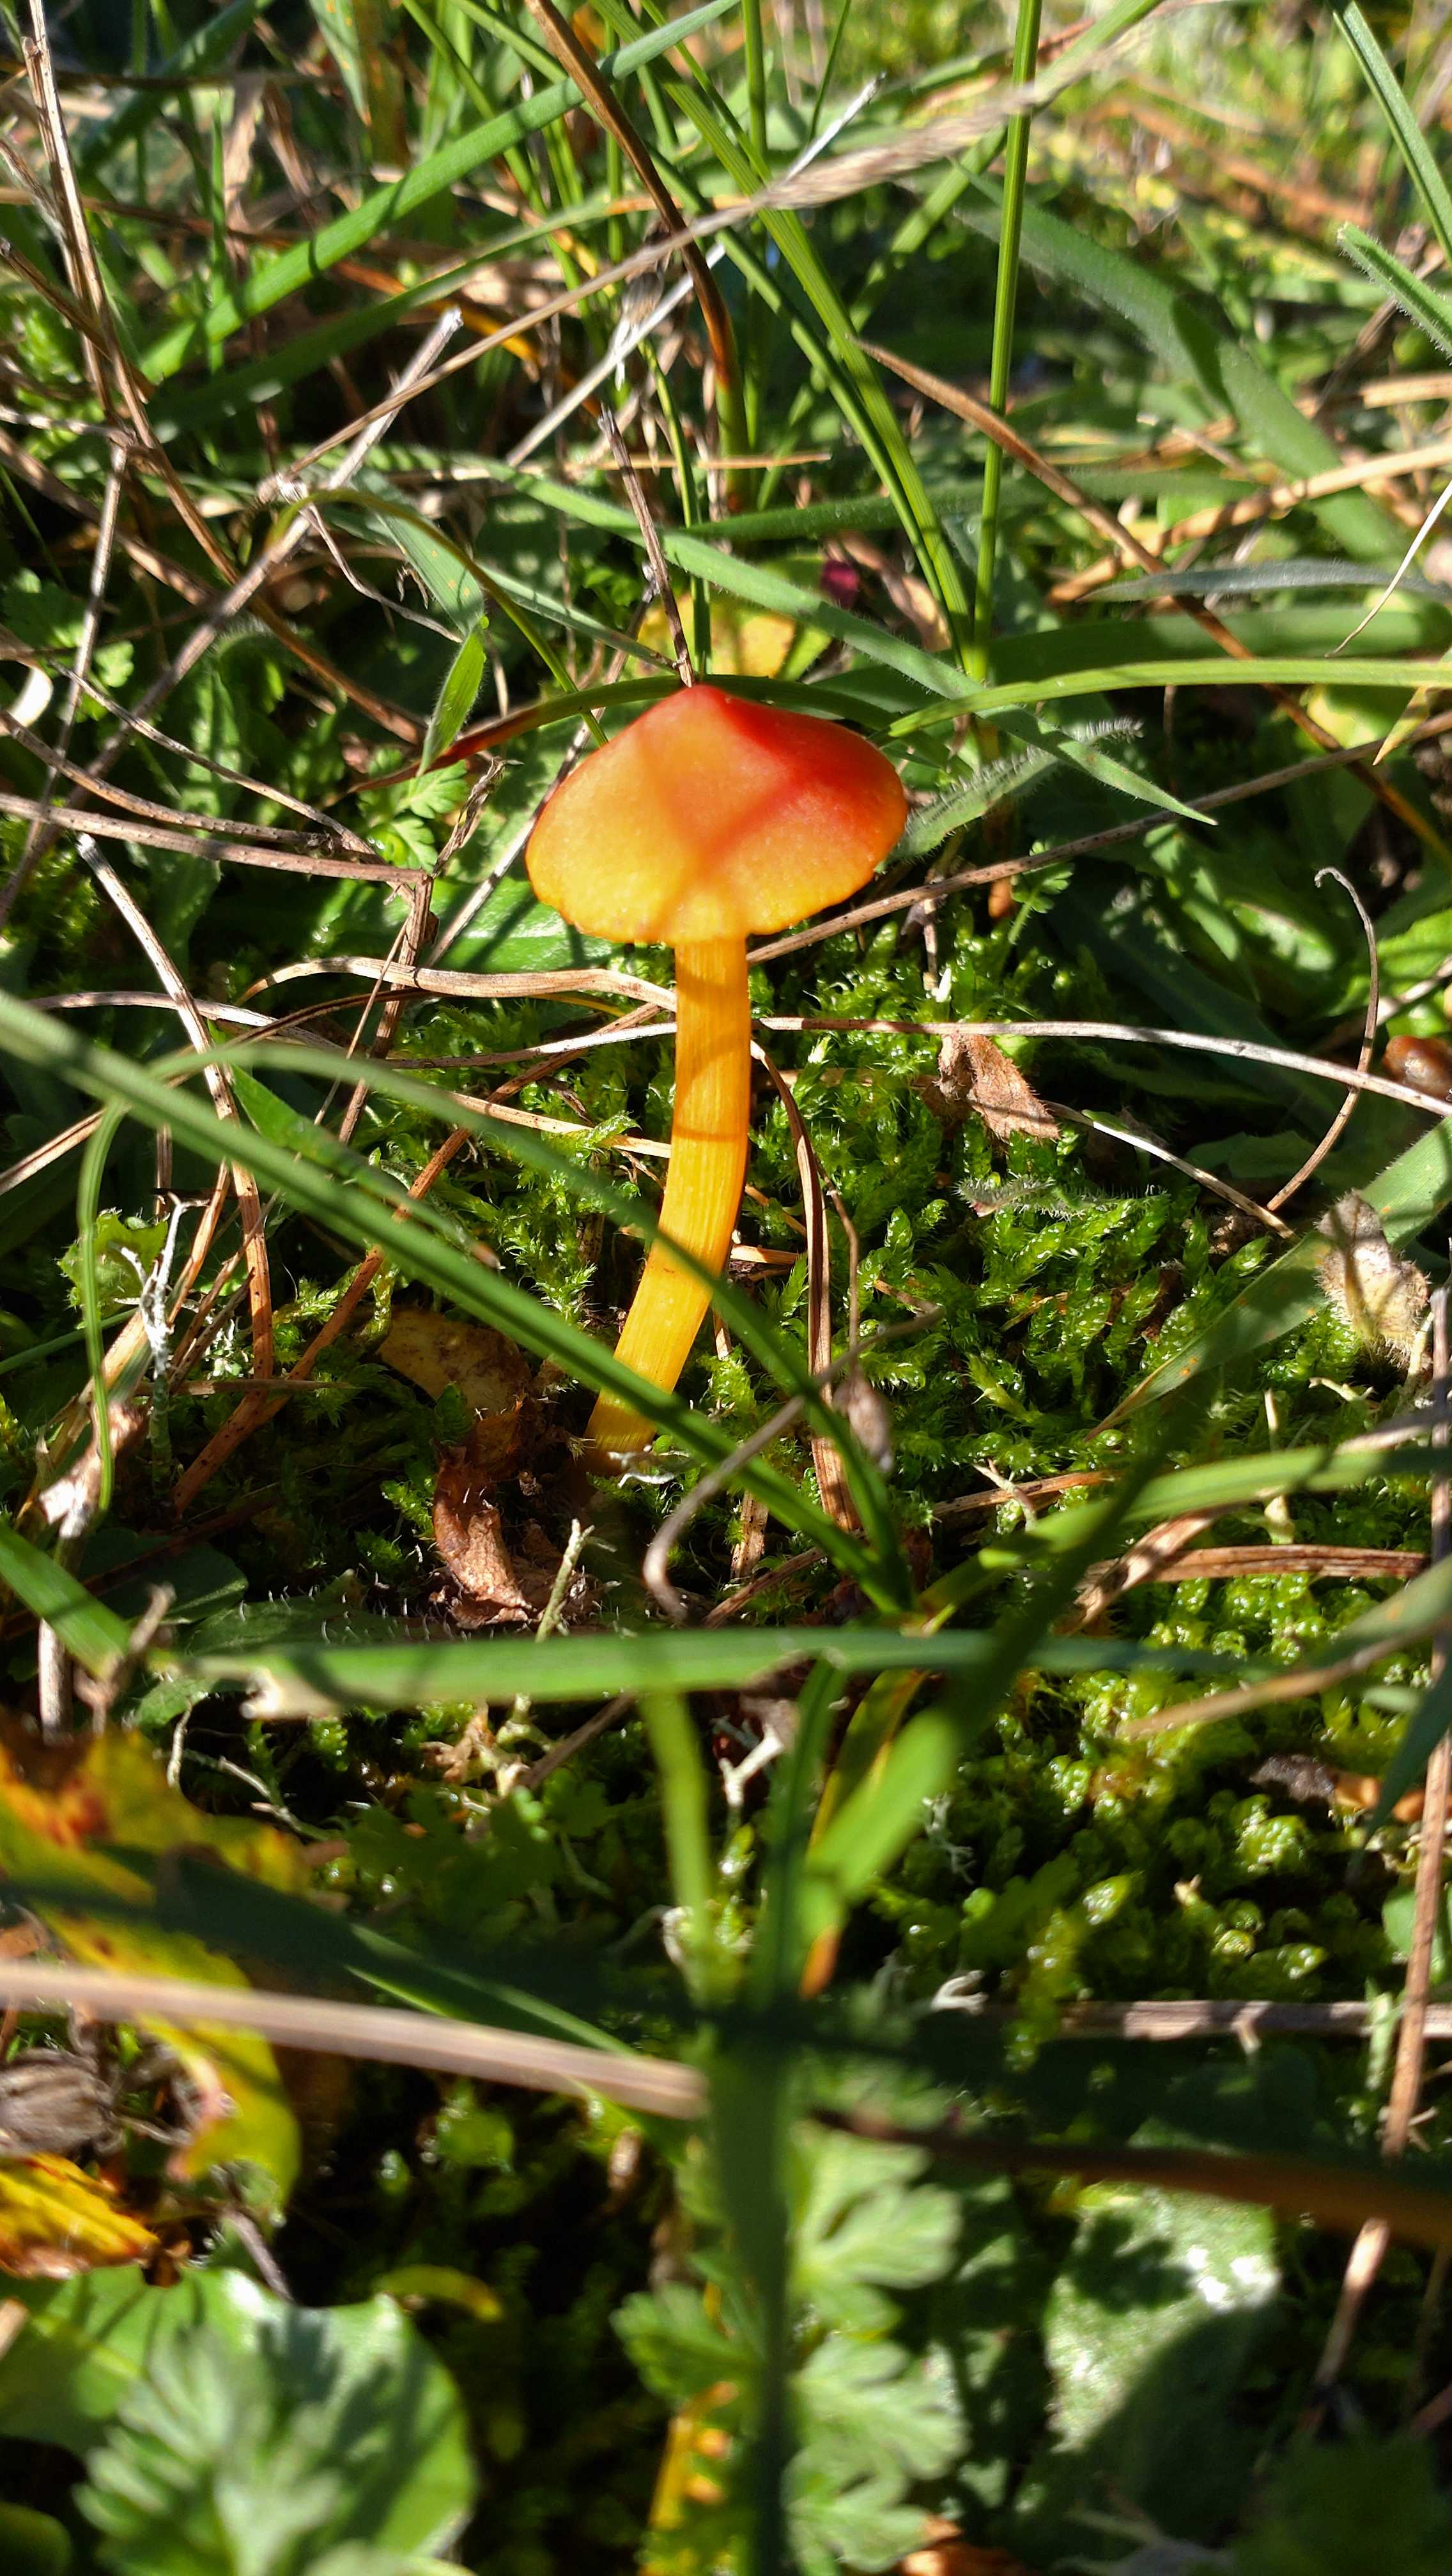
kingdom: Fungi
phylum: Basidiomycota
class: Agaricomycetes
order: Agaricales
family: Hygrophoraceae
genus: Hygrocybe
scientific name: Hygrocybe conica
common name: kegle-vokshat
